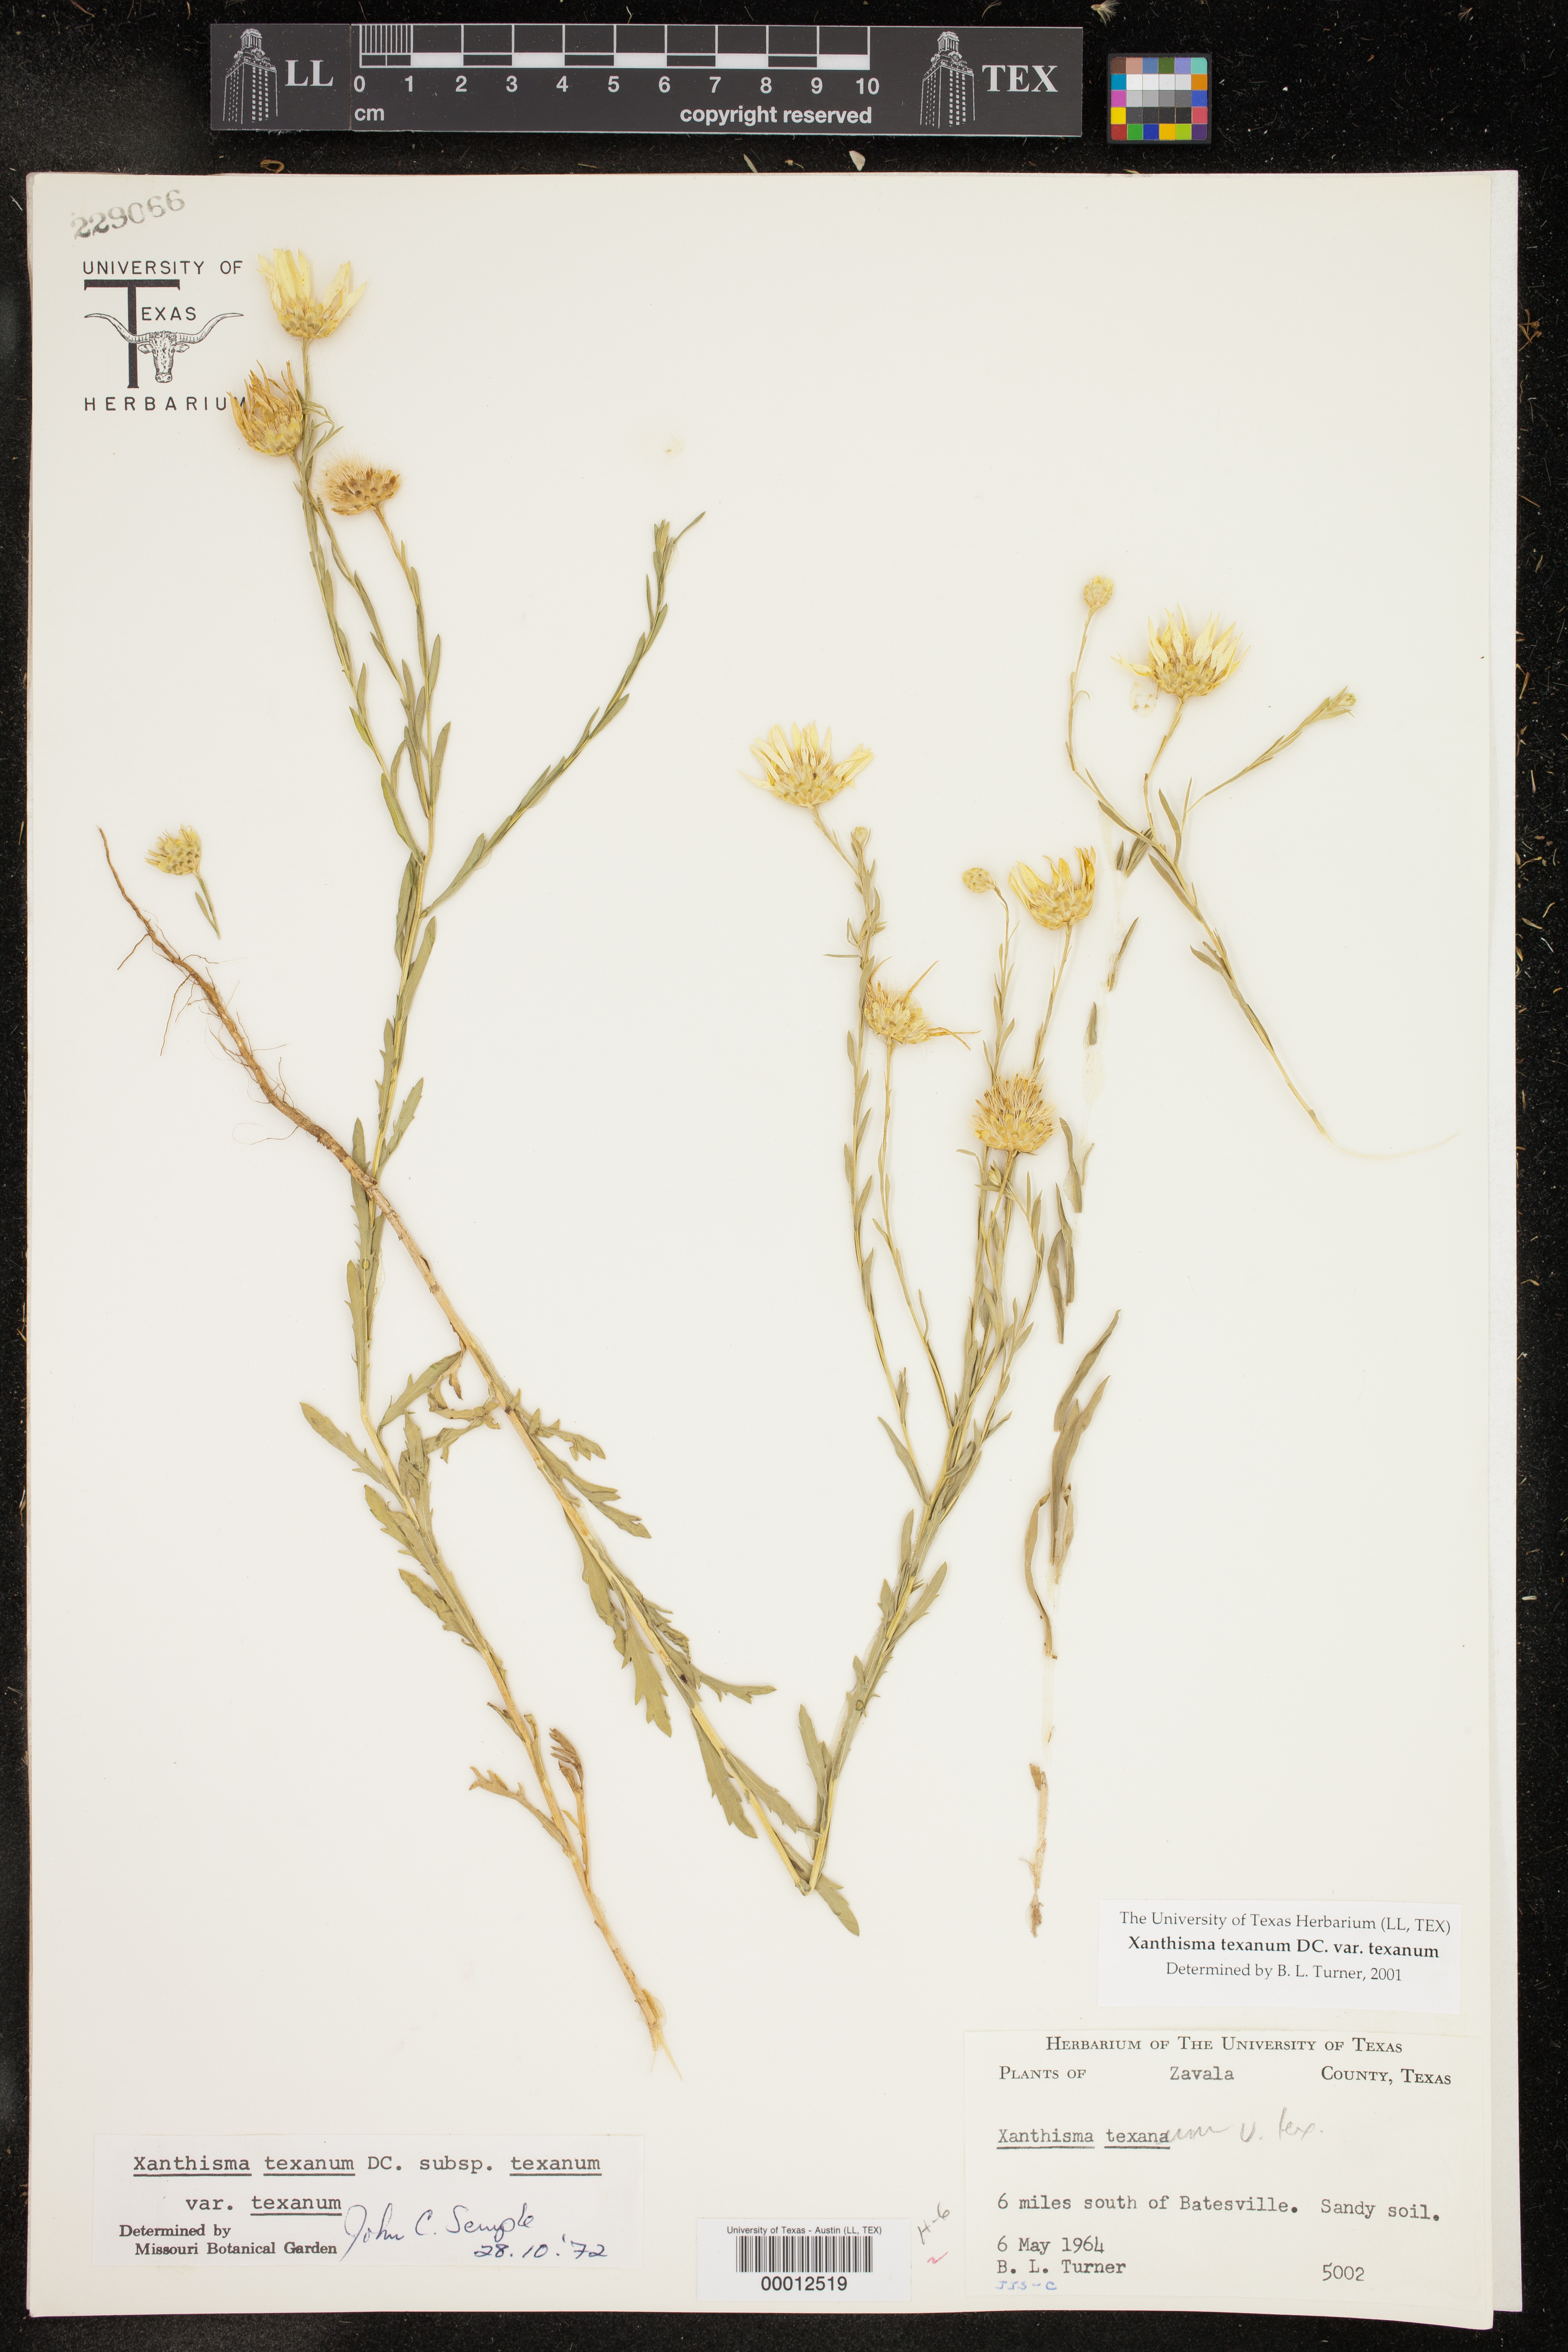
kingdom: Plantae
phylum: Tracheophyta
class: Magnoliopsida
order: Asterales
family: Asteraceae
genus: Xanthisma
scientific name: Xanthisma texanum
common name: Texas sleepy daisy
